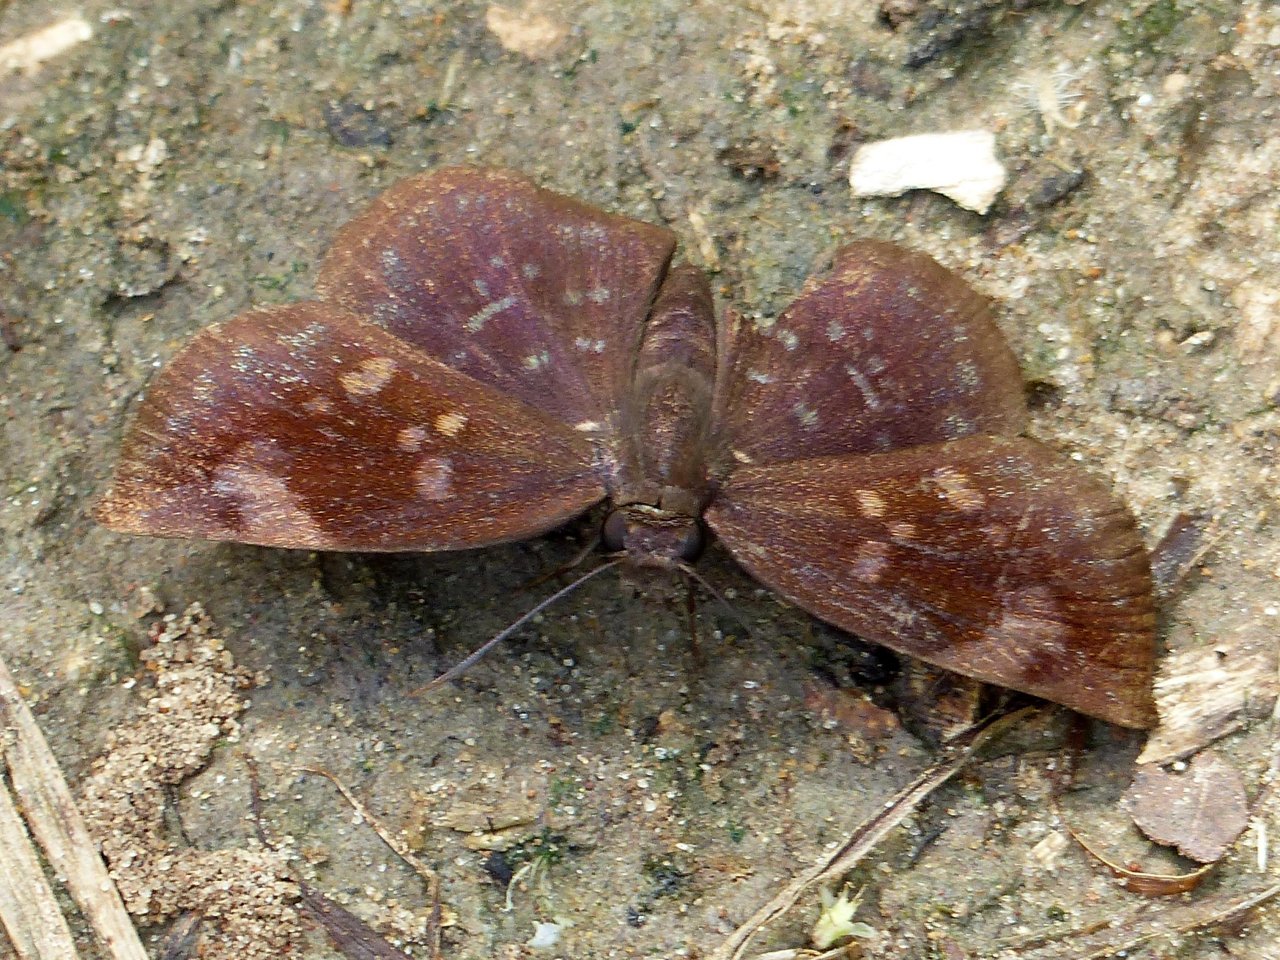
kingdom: Animalia
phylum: Arthropoda
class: Insecta
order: Lepidoptera
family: Hesperiidae
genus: Achlyodes
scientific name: Achlyodes thraso
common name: Sickle-winged Skipper
